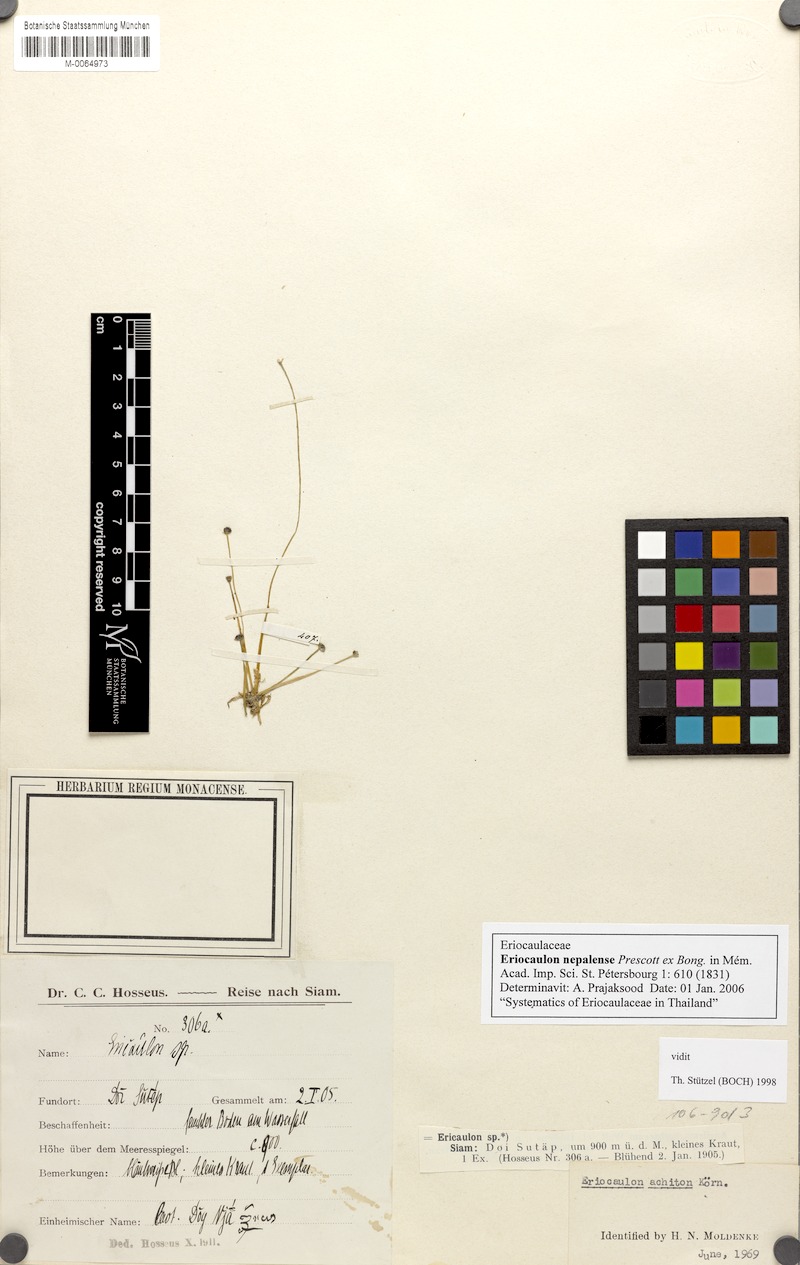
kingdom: Plantae
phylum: Tracheophyta
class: Liliopsida
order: Poales
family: Eriocaulaceae
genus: Eriocaulon
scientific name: Eriocaulon nepalense
